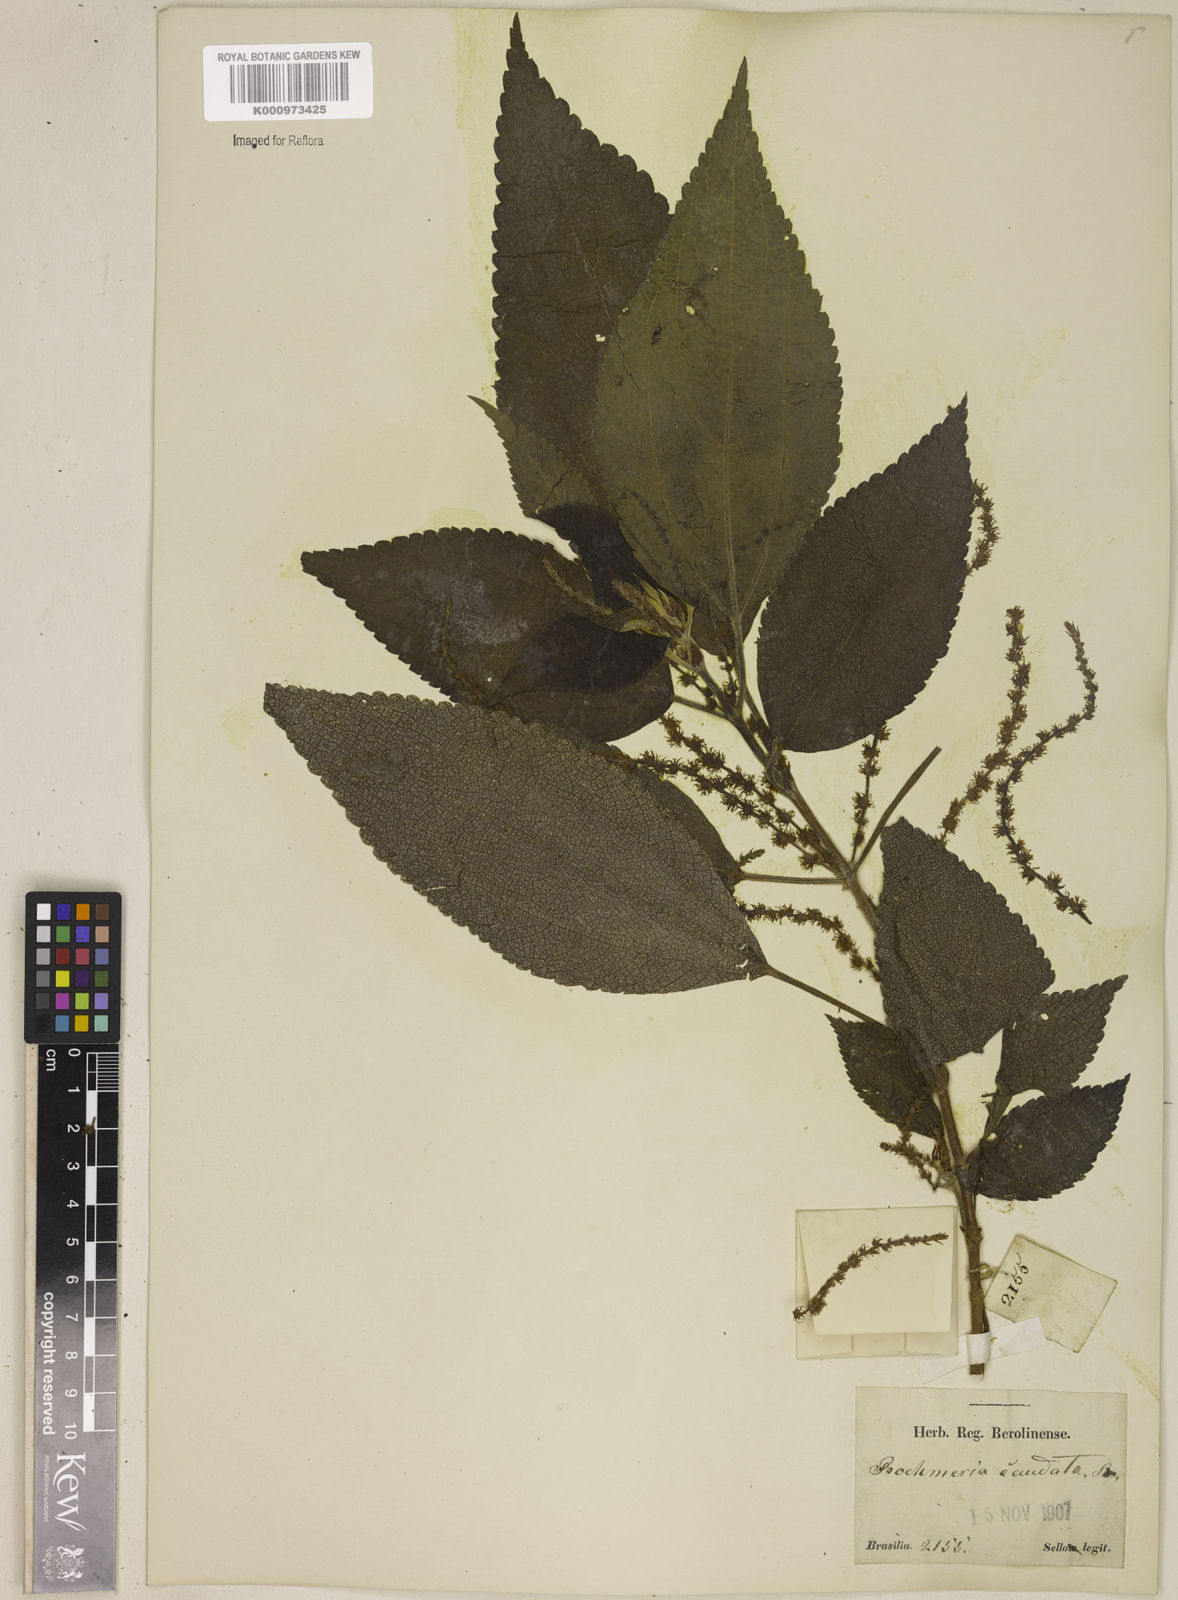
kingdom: Plantae
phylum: Tracheophyta
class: Magnoliopsida
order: Rosales
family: Urticaceae
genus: Boehmeria
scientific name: Boehmeria caudata
